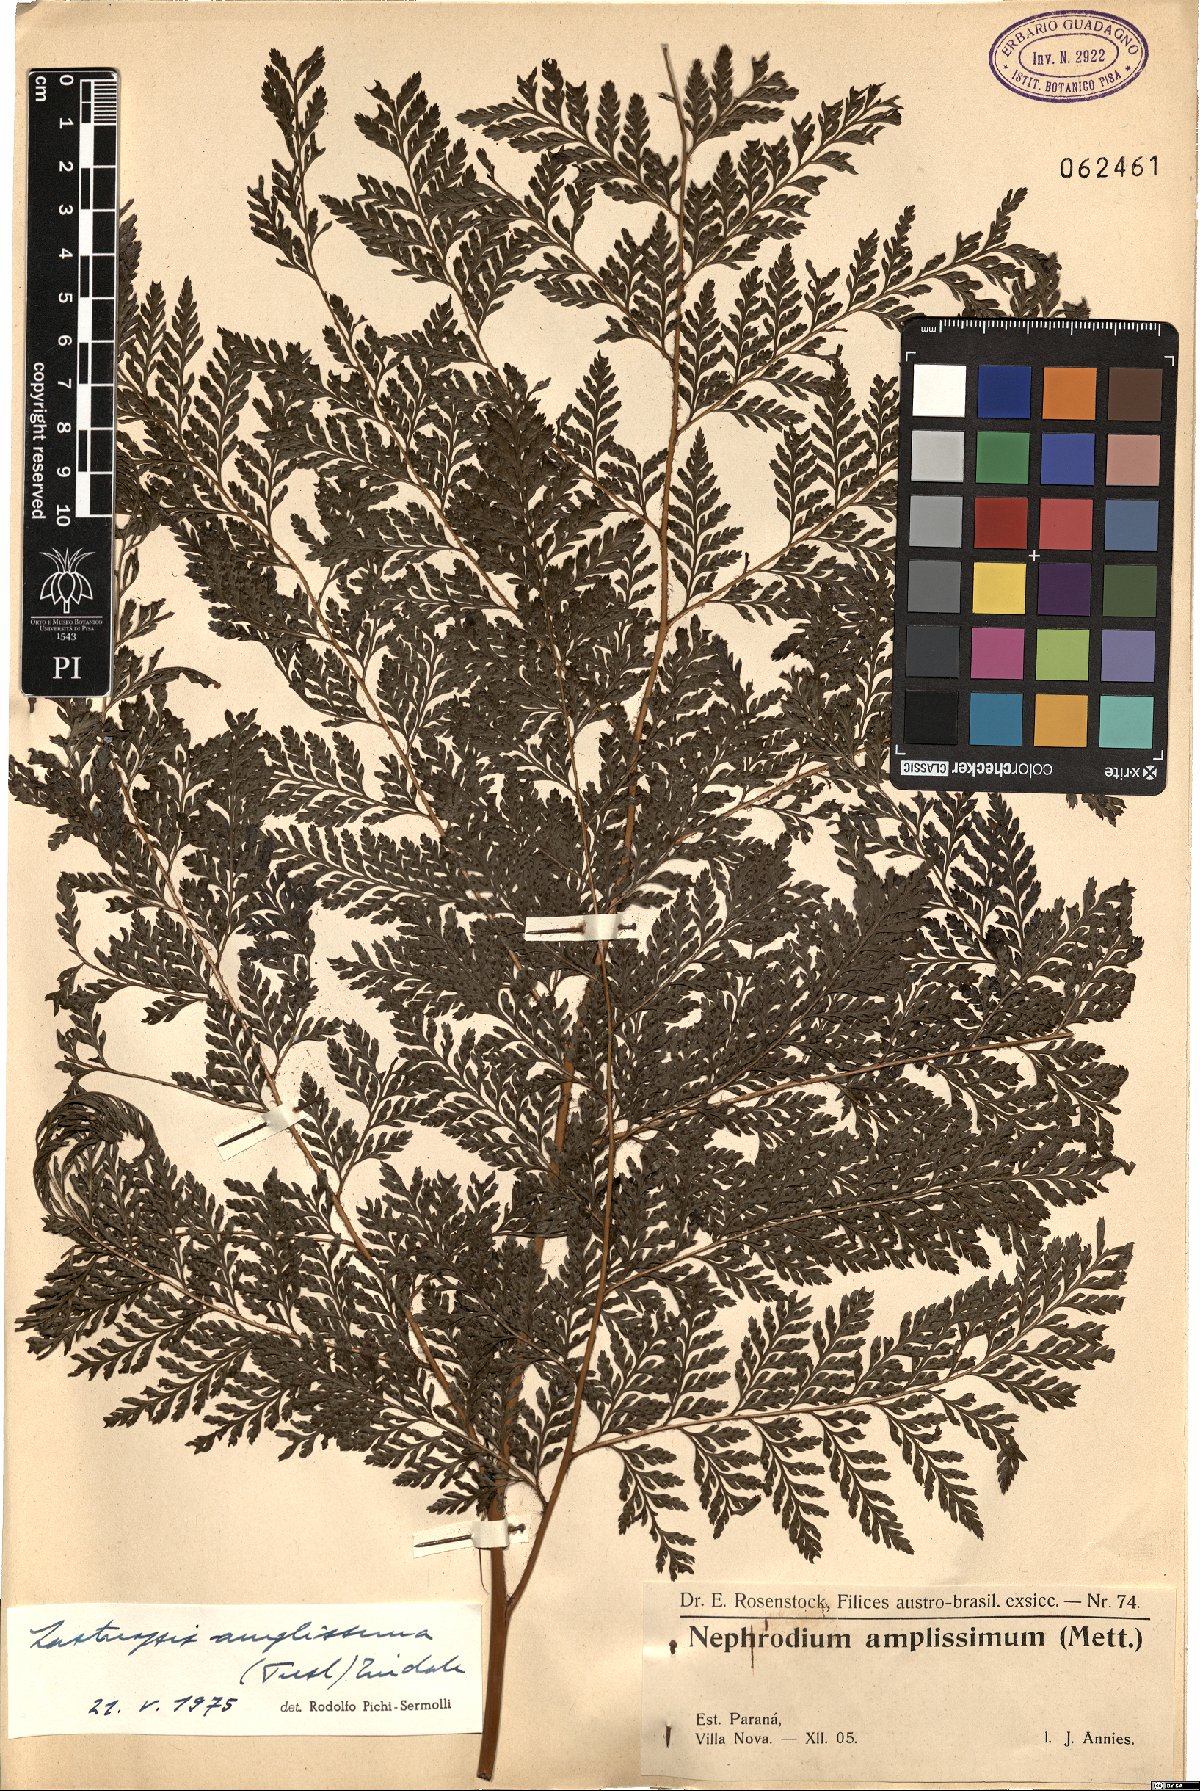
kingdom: Plantae
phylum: Tracheophyta
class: Polypodiopsida
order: Polypodiales
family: Dryopteridaceae
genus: Lastreopsis
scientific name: Lastreopsis amplissima
